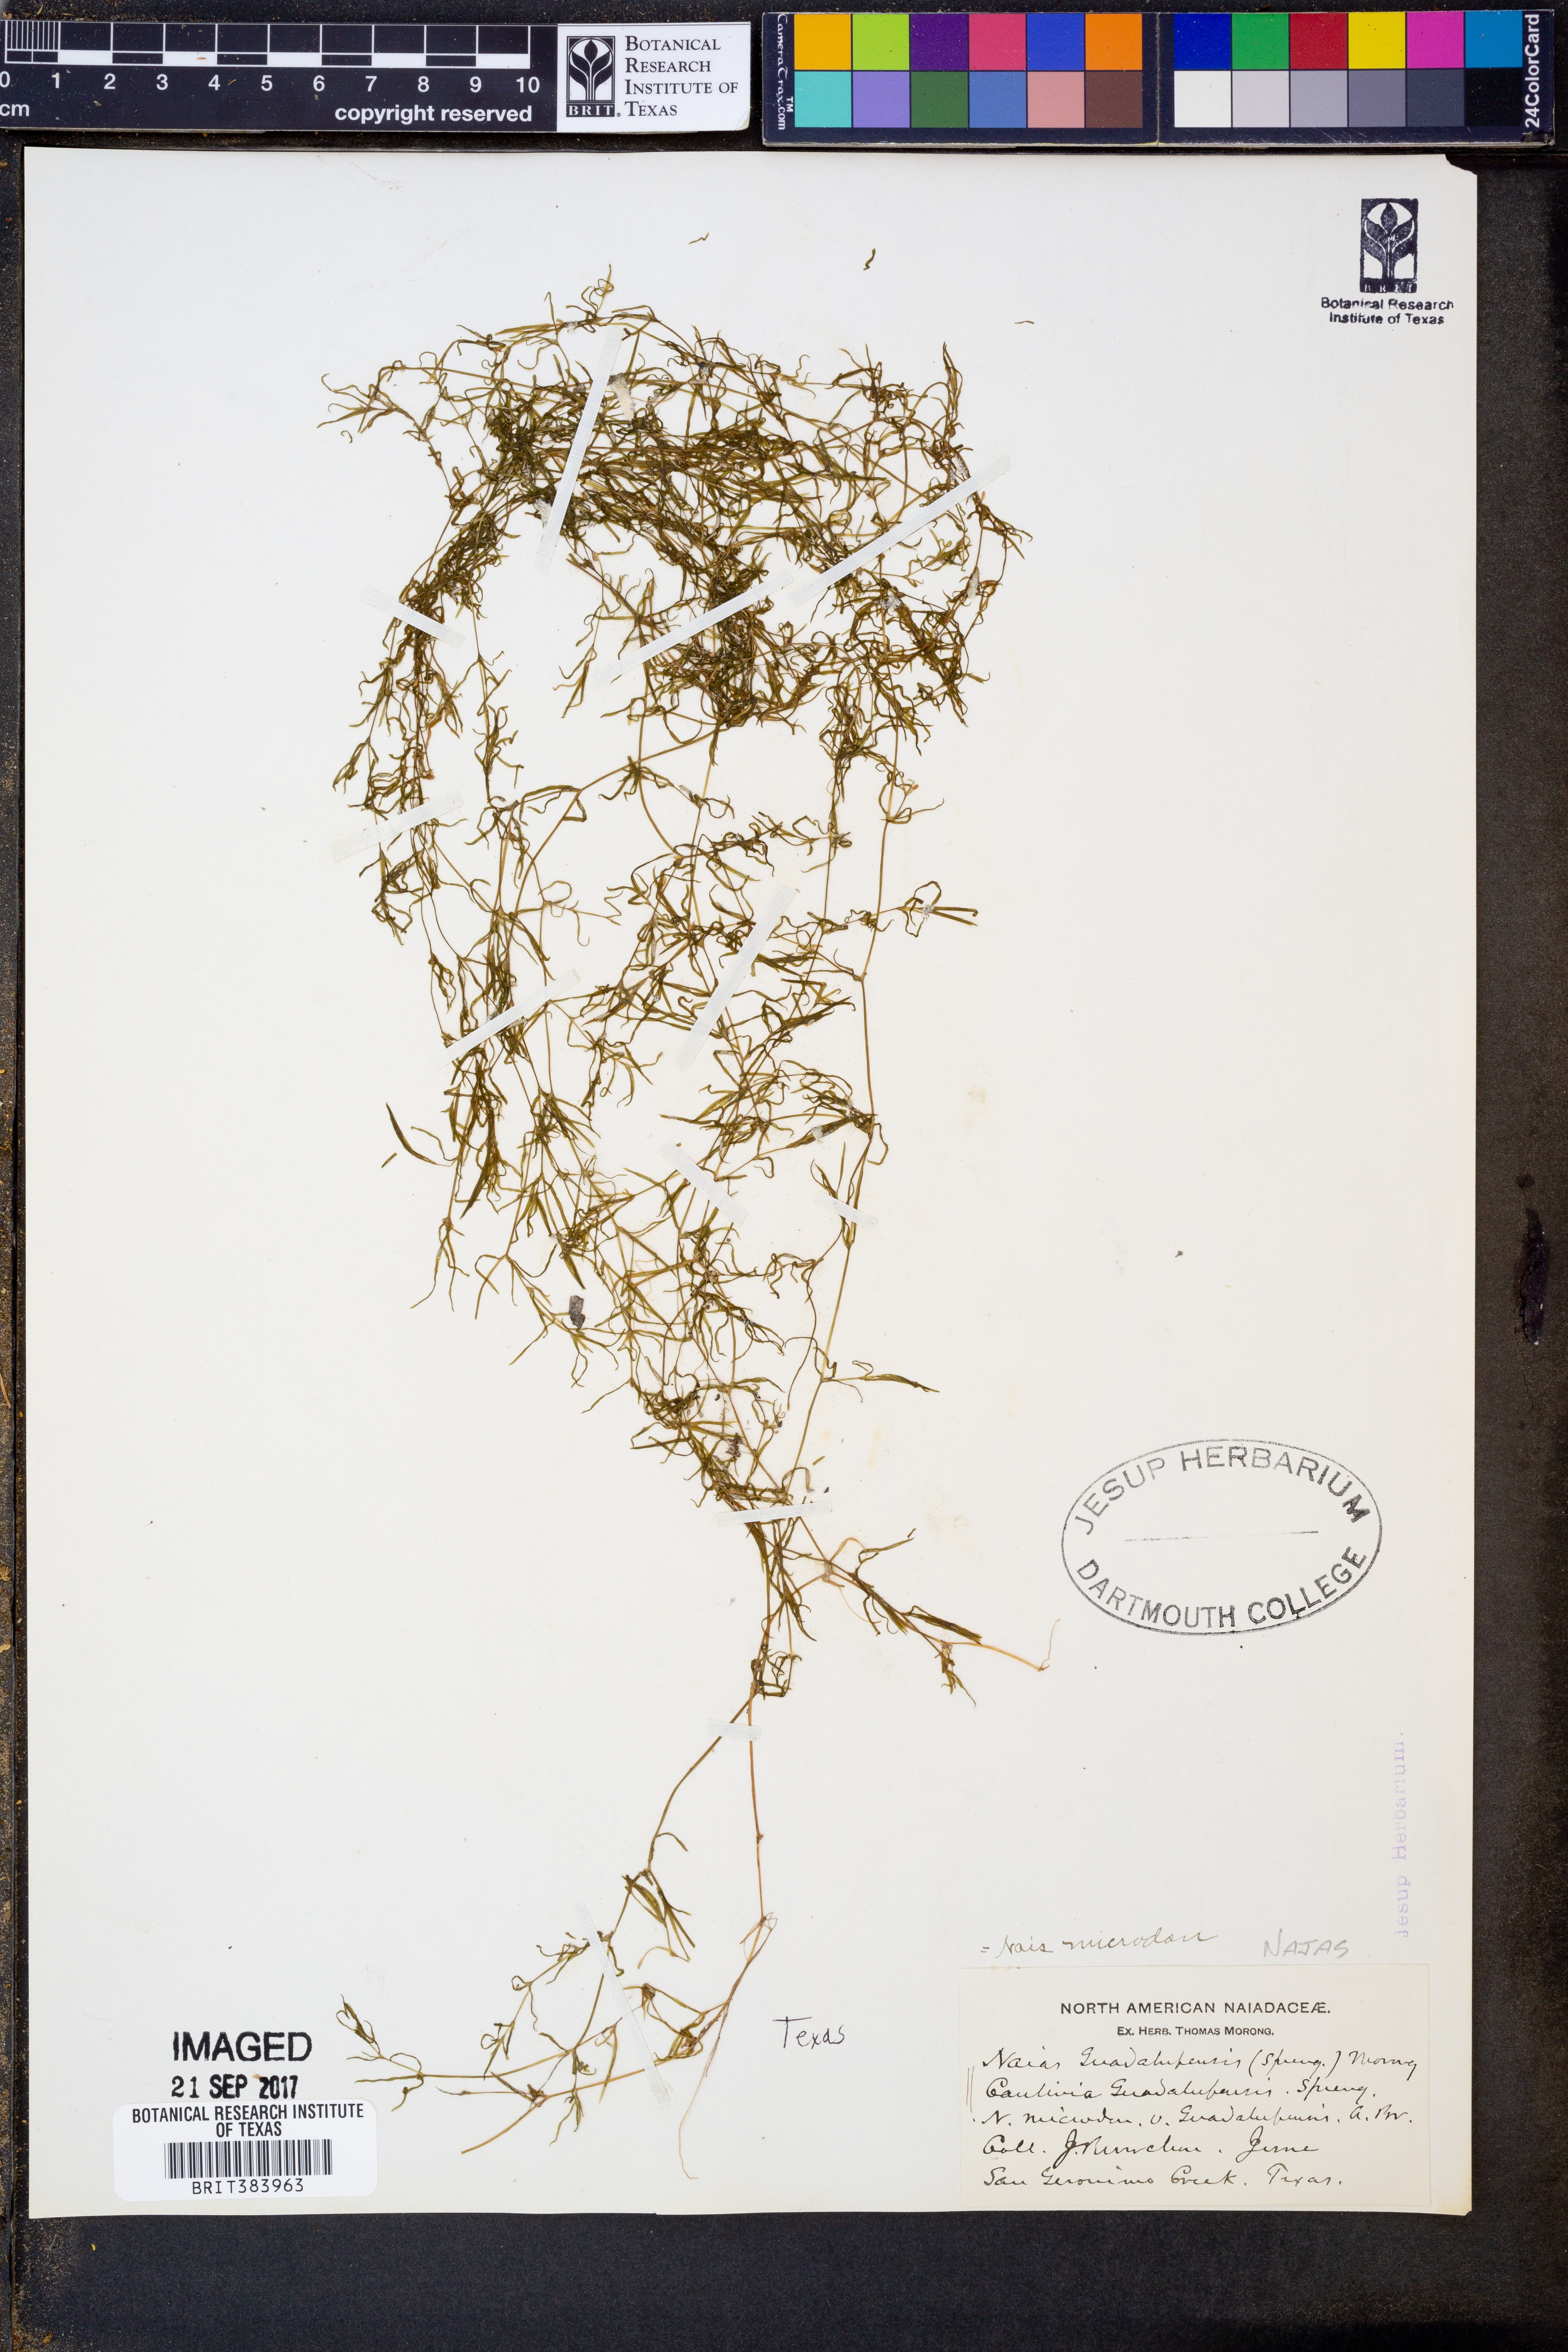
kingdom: Plantae
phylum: Tracheophyta
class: Liliopsida
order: Alismatales
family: Hydrocharitaceae
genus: Najas
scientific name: Najas guadalupensis
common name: Southern naiad
